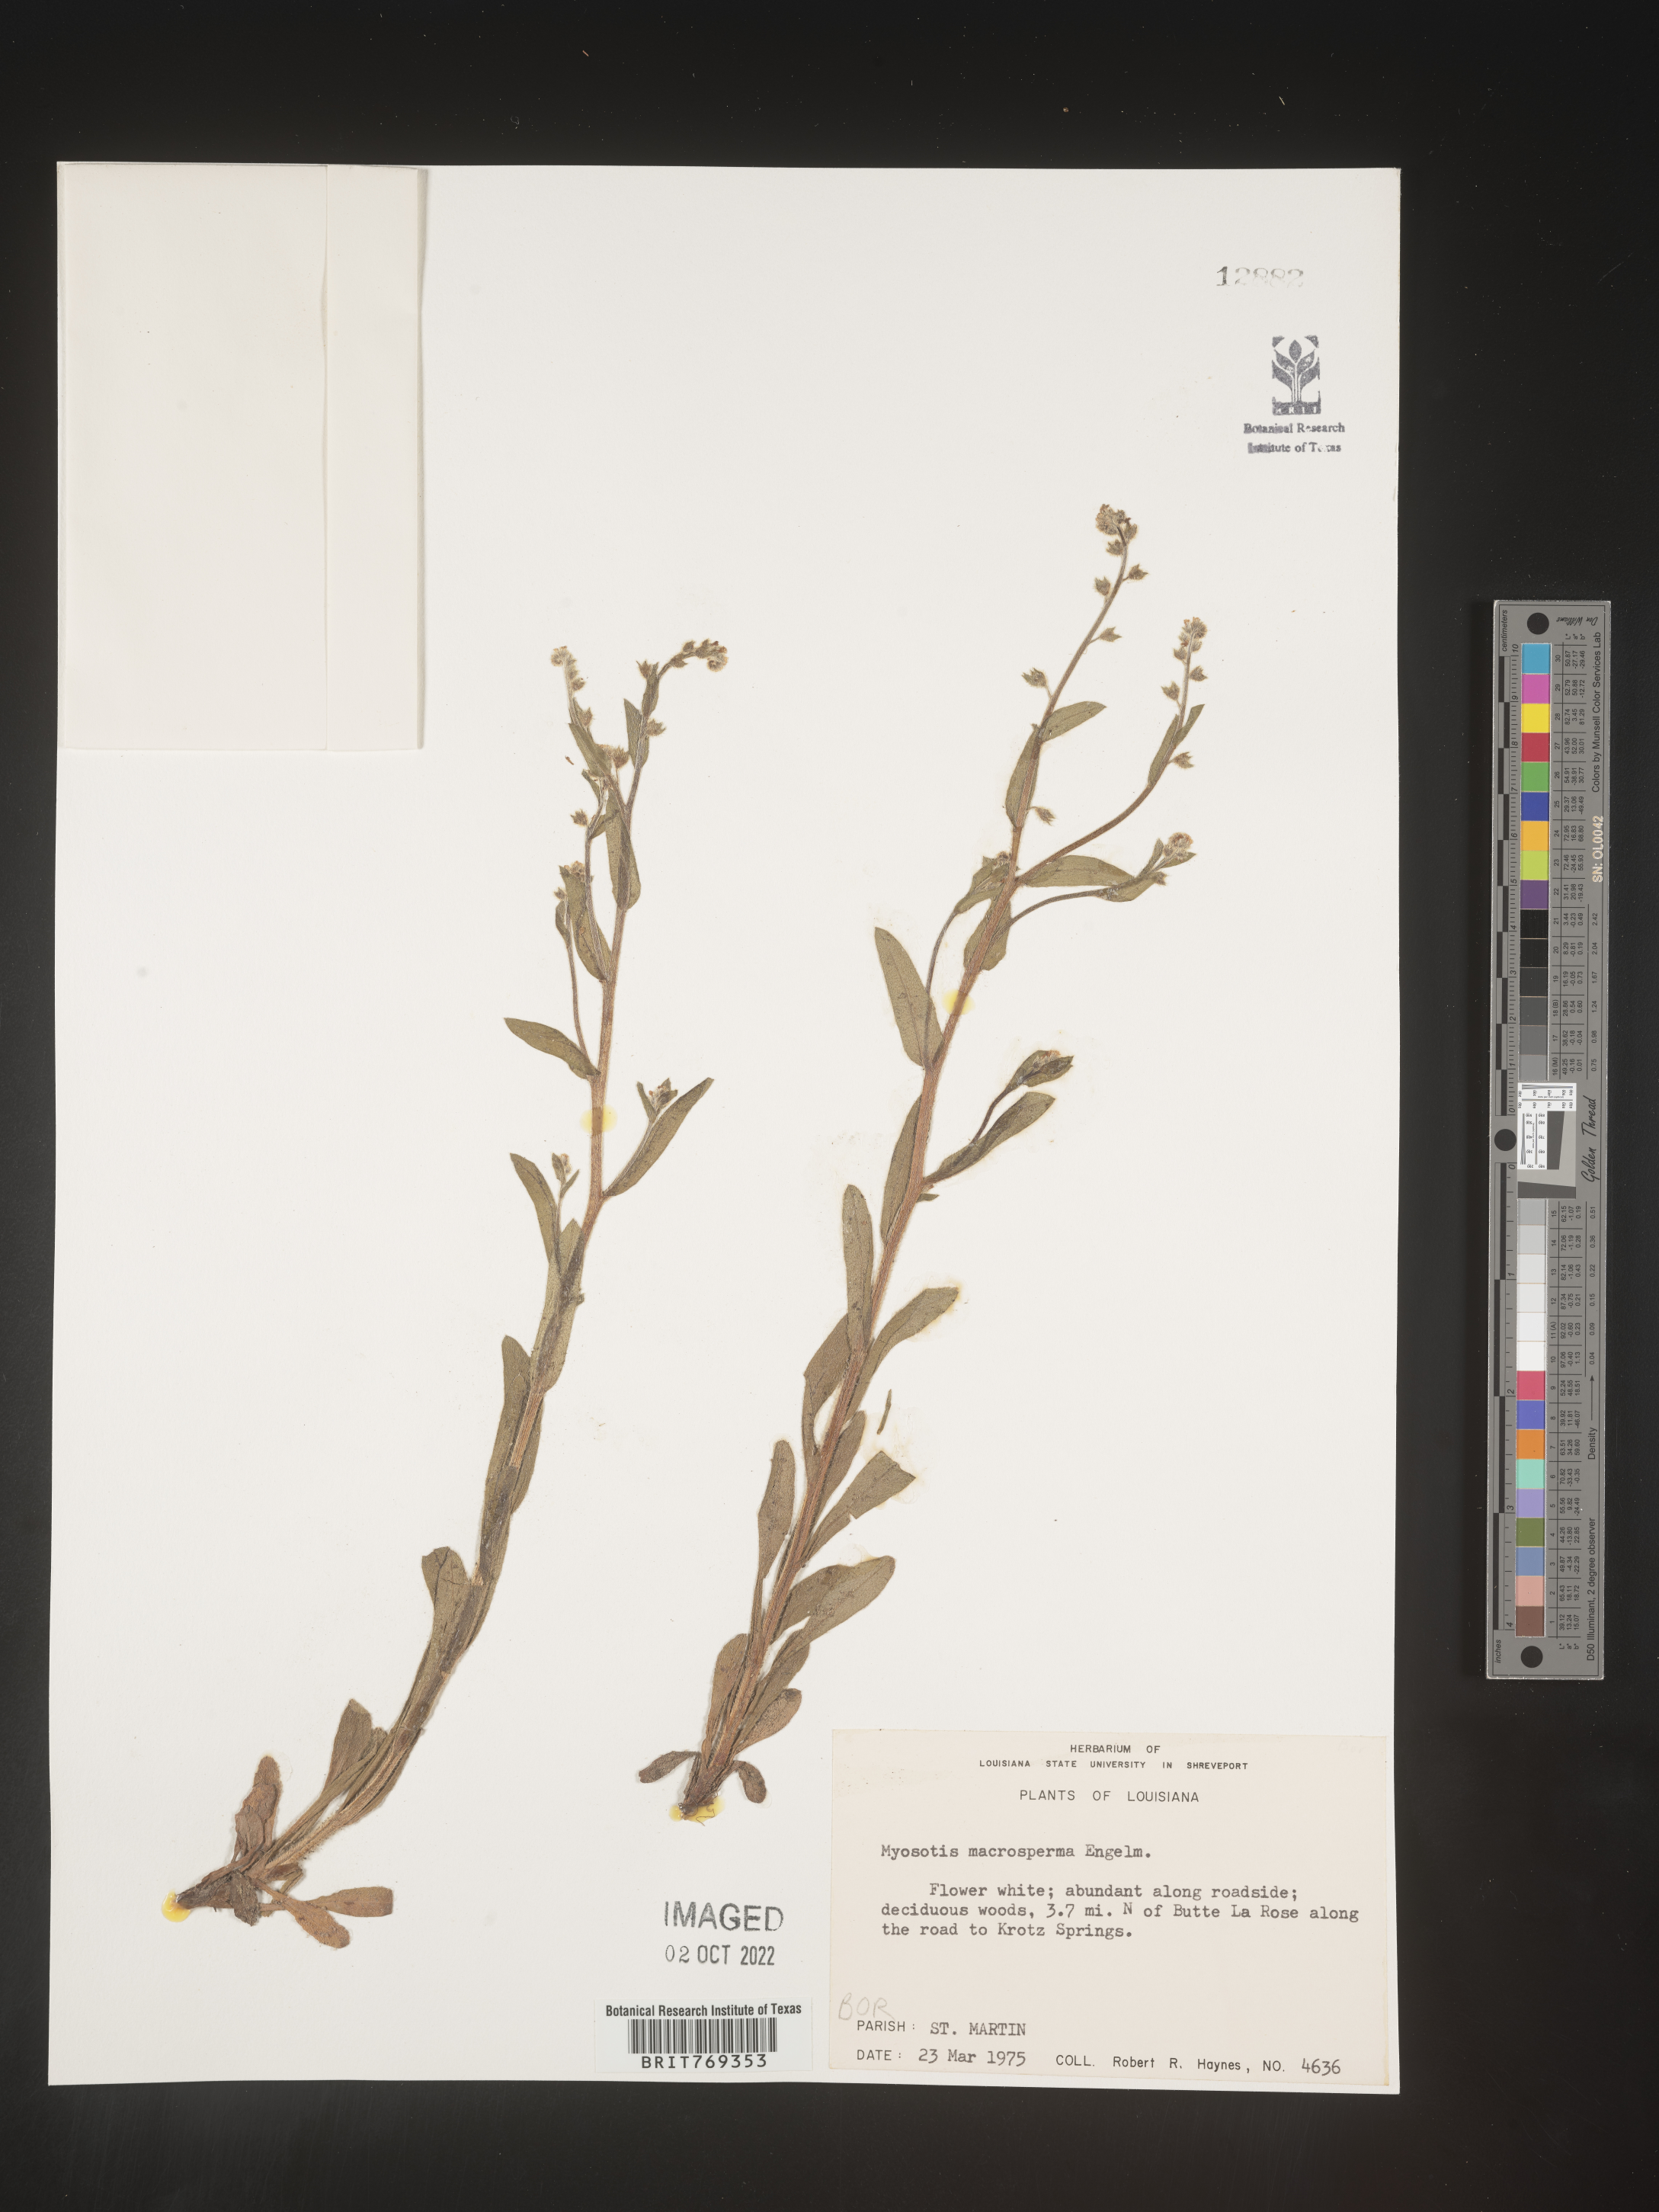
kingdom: Plantae
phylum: Tracheophyta
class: Magnoliopsida
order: Boraginales
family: Boraginaceae
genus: Myosotis
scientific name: Myosotis macrosperma
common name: Large-seed forget-me-not
